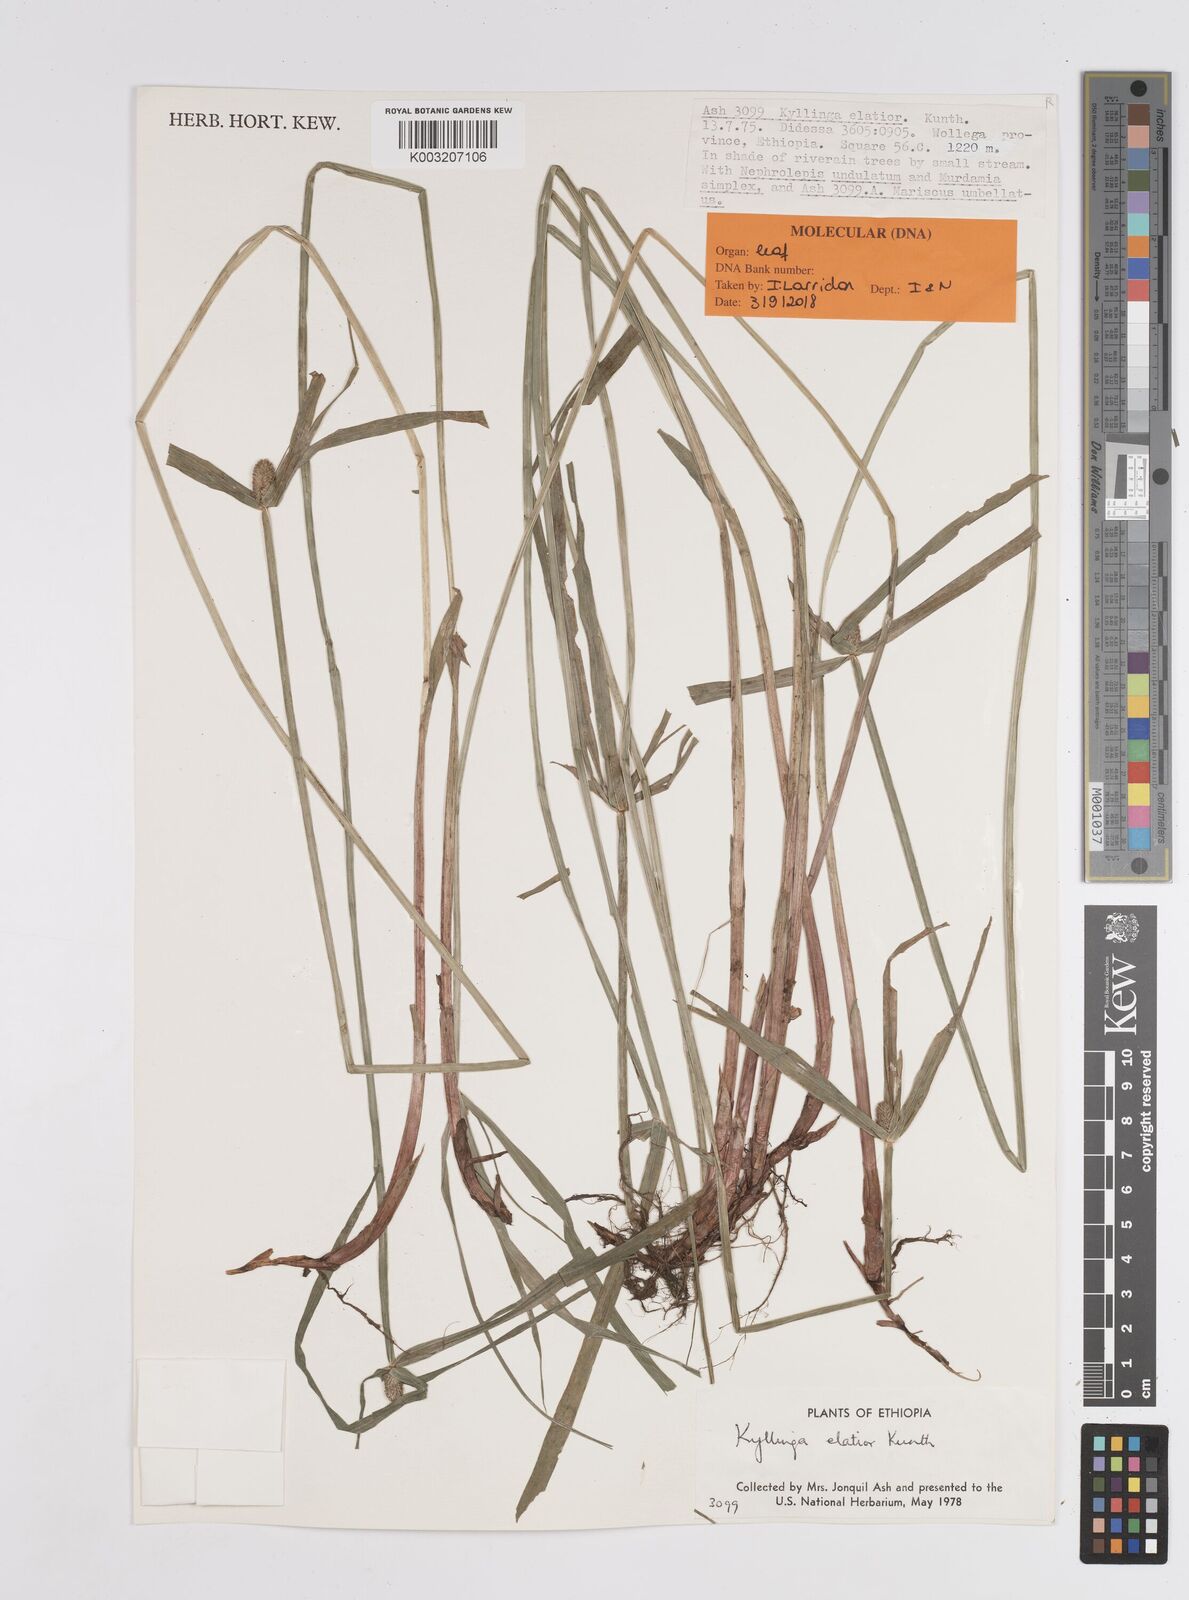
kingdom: Plantae
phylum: Tracheophyta
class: Liliopsida
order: Poales
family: Cyperaceae
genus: Cyperus
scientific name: Cyperus
